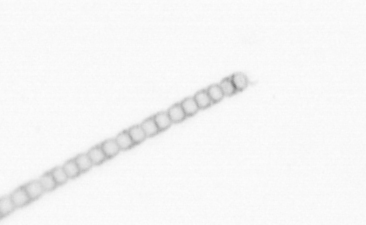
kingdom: Chromista
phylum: Ochrophyta
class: Bacillariophyceae
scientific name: Bacillariophyceae
